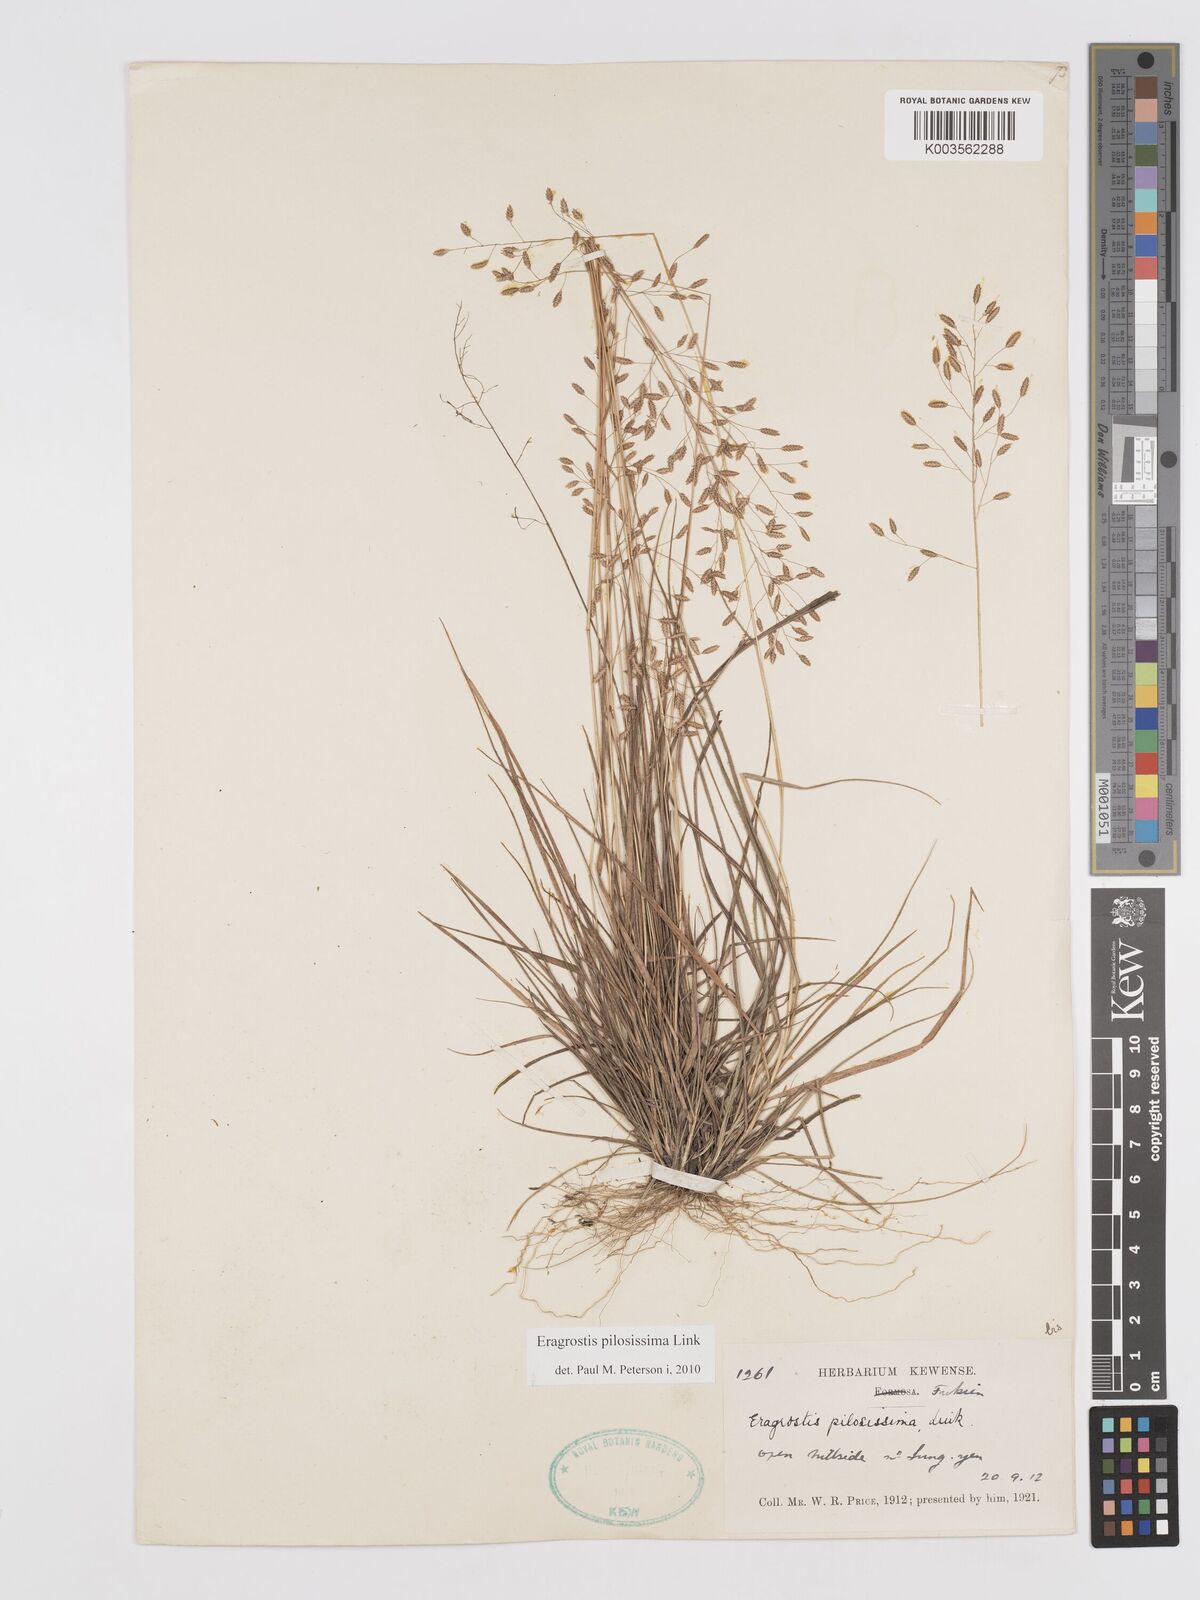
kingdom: Plantae
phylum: Tracheophyta
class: Liliopsida
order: Poales
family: Poaceae
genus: Eragrostis
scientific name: Eragrostis pilosissima
